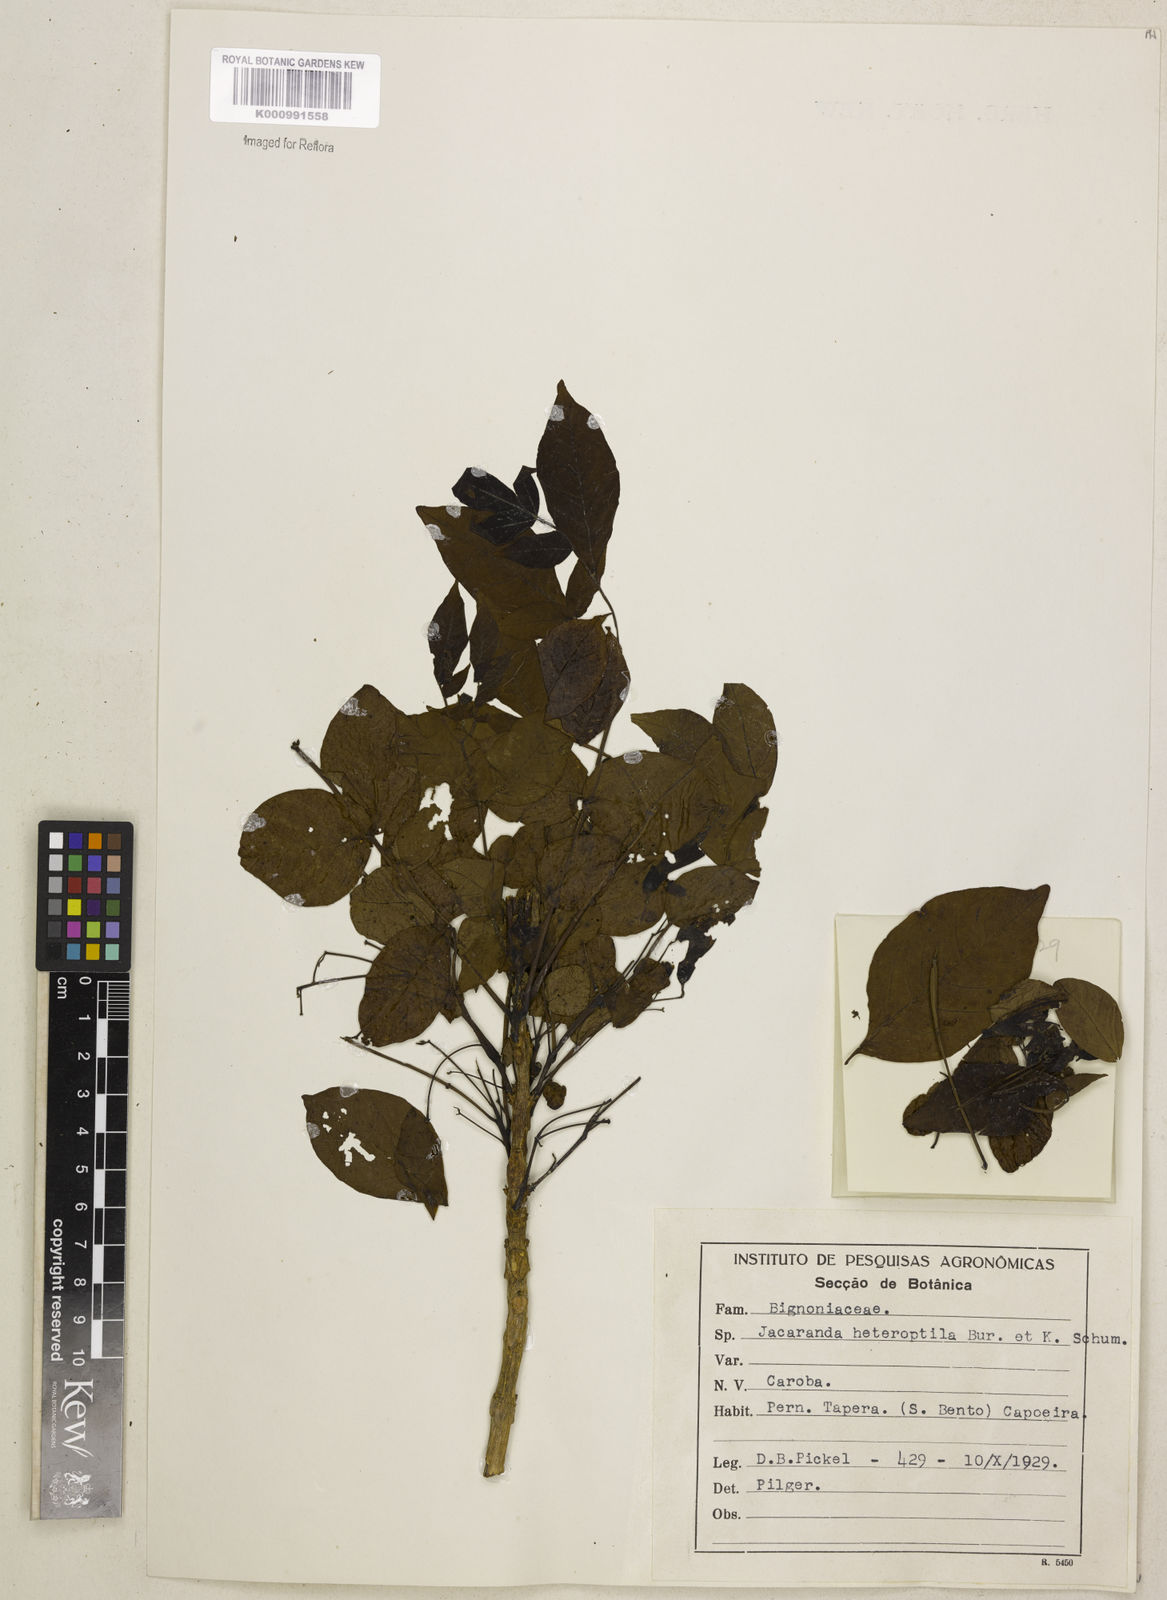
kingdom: Plantae
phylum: Tracheophyta
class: Magnoliopsida
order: Lamiales
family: Bignoniaceae
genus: Jacaranda
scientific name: Jacaranda macrantha
